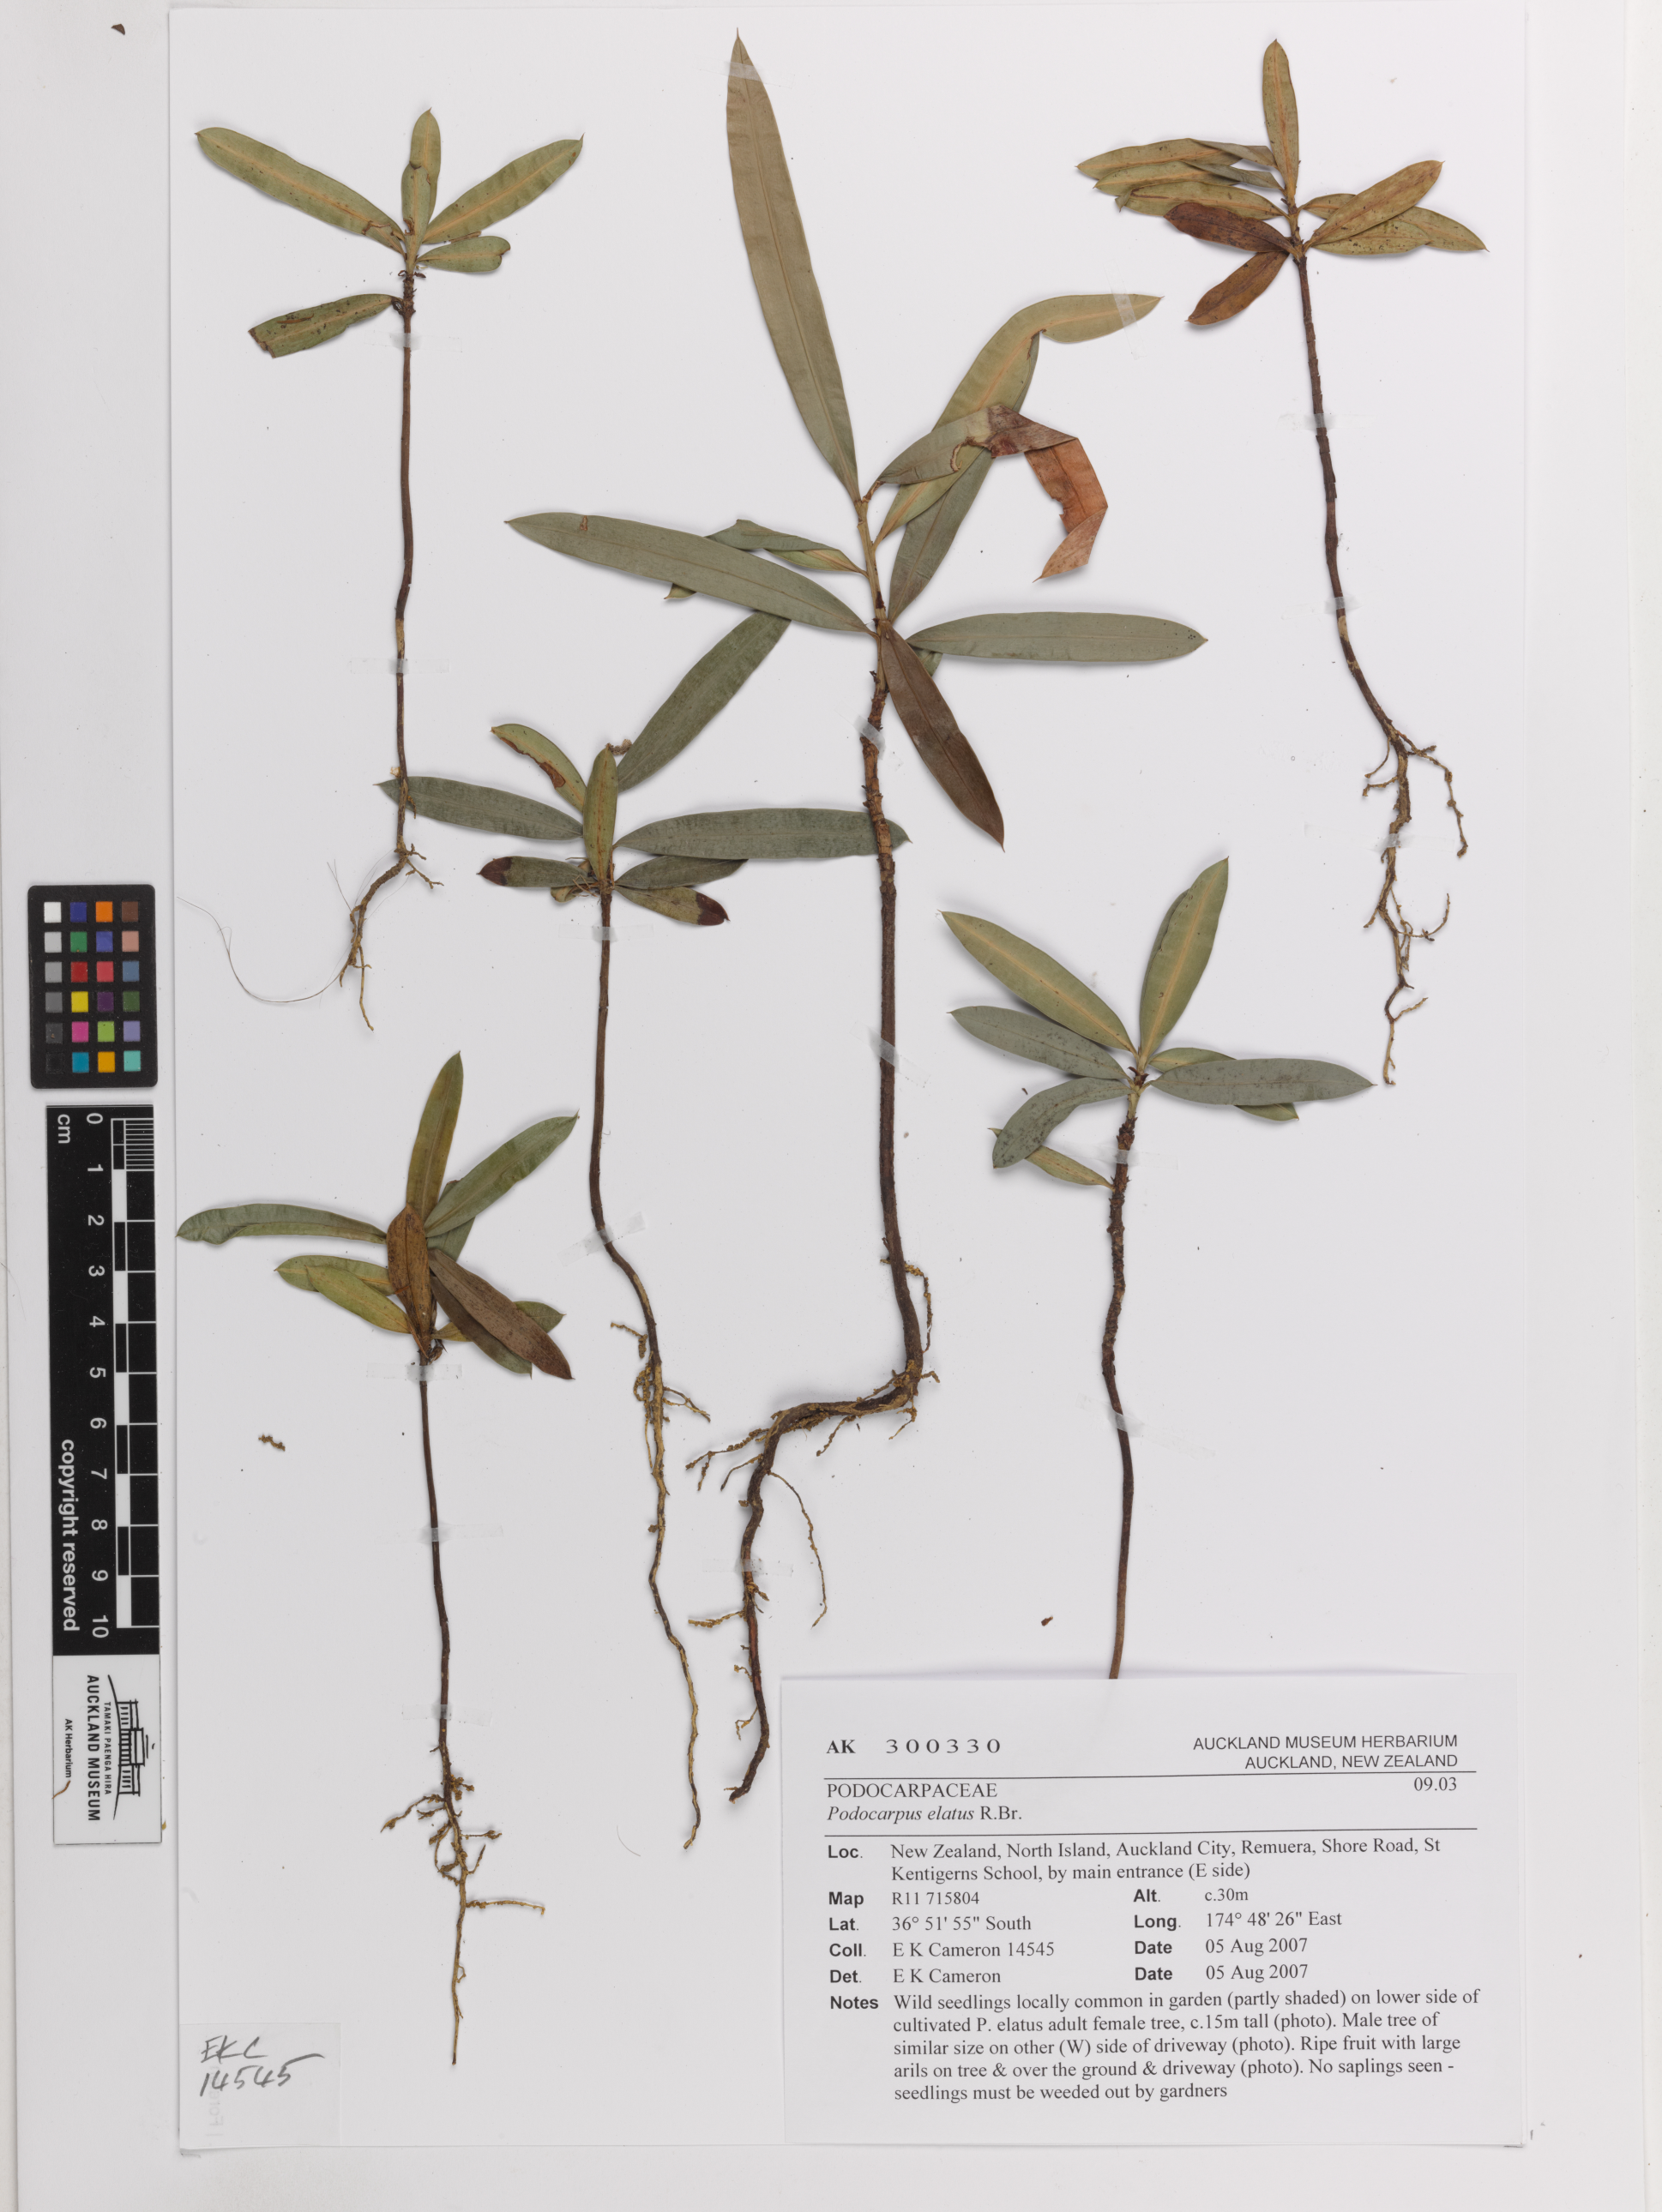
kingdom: Plantae
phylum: Tracheophyta
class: Pinopsida
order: Pinales
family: Podocarpaceae
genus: Podocarpus
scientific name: Podocarpus elatus
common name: Plum pine
